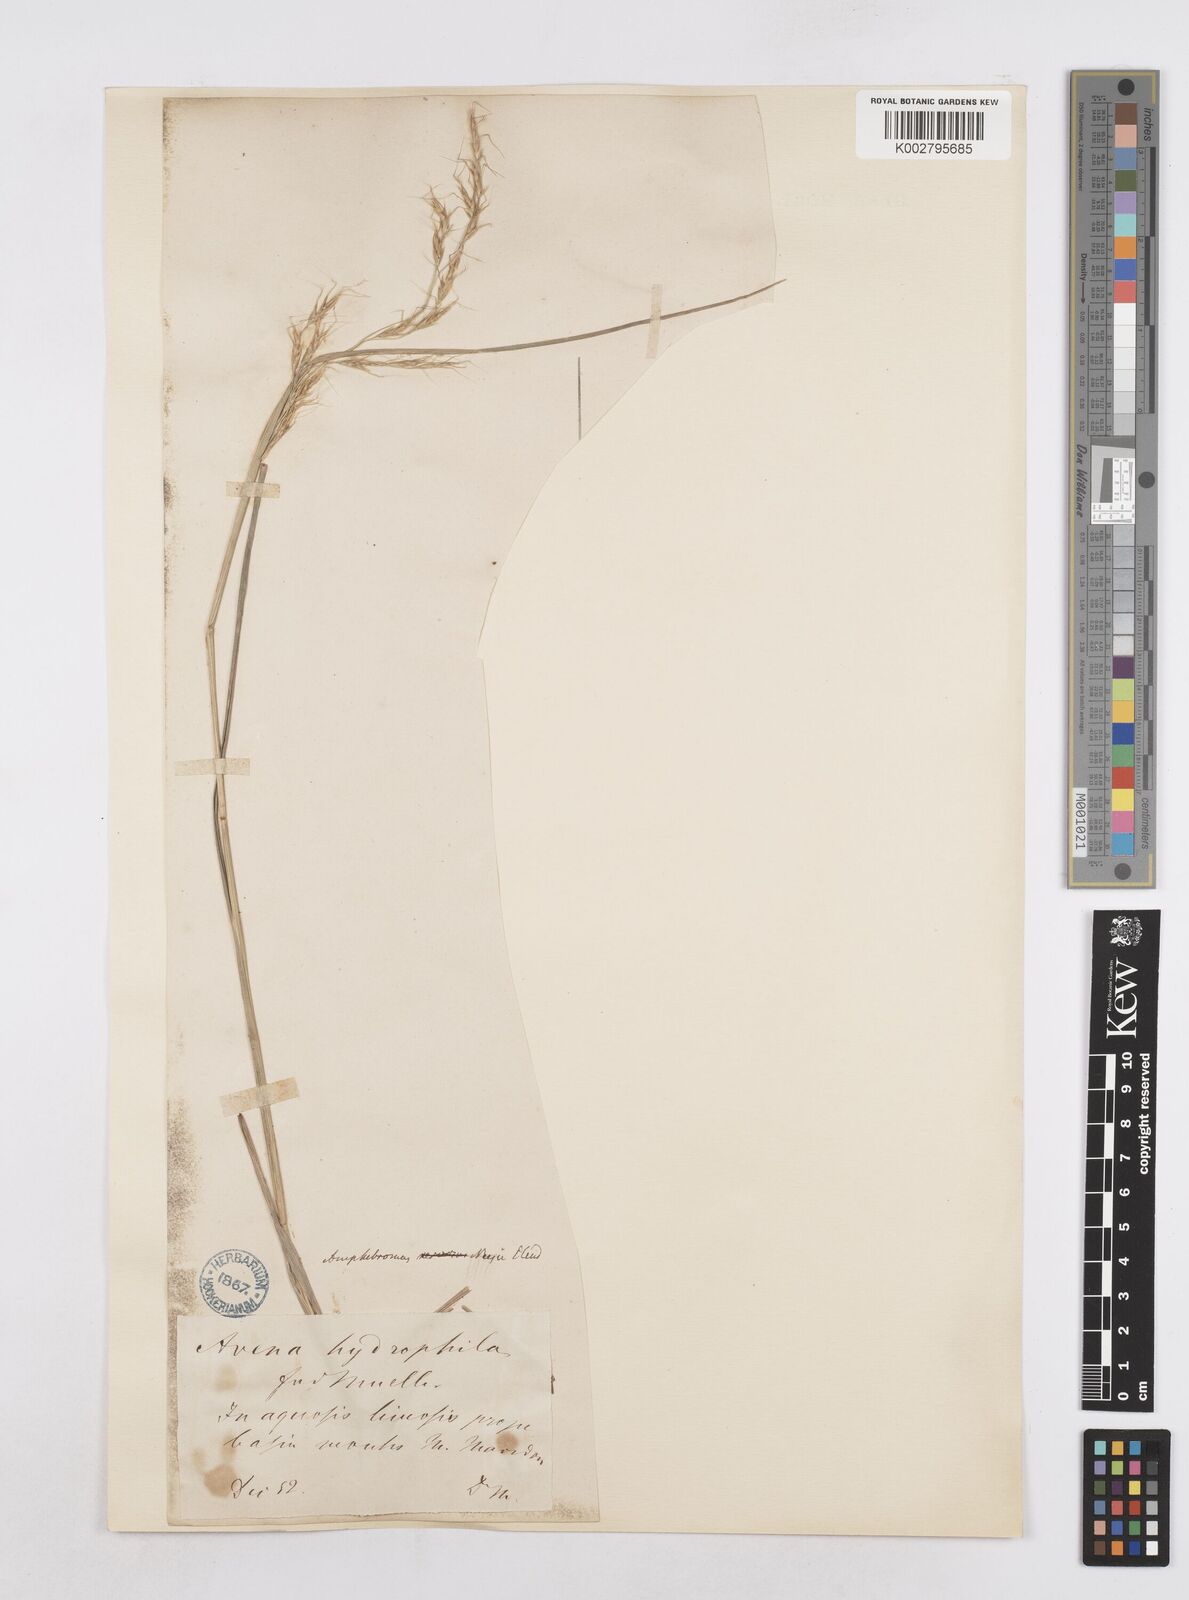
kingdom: Plantae
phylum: Tracheophyta
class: Liliopsida
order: Poales
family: Poaceae
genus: Amphibromus
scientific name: Amphibromus neesii
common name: Australian wallaby grass
